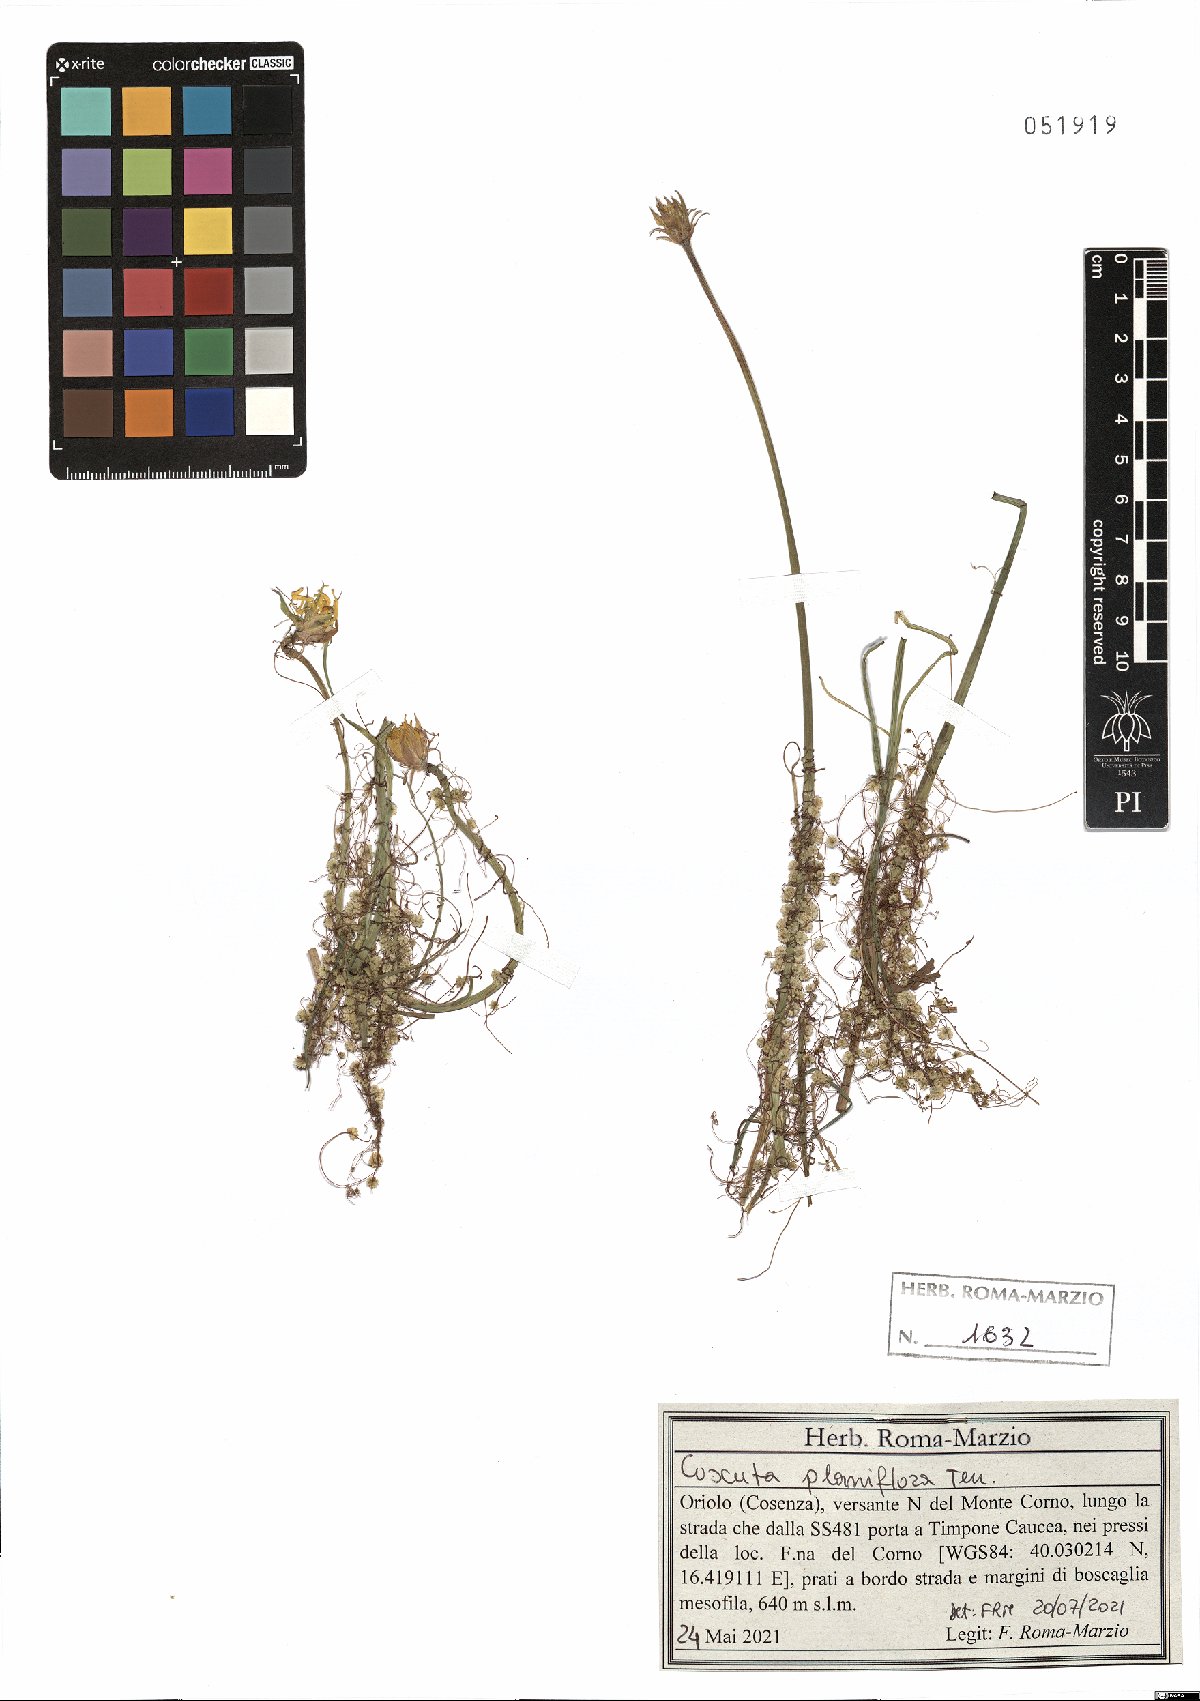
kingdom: Plantae
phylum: Tracheophyta
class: Magnoliopsida
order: Solanales
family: Convolvulaceae
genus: Cuscuta
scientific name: Cuscuta planiflora
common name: Small-seed alfalfa dodder
